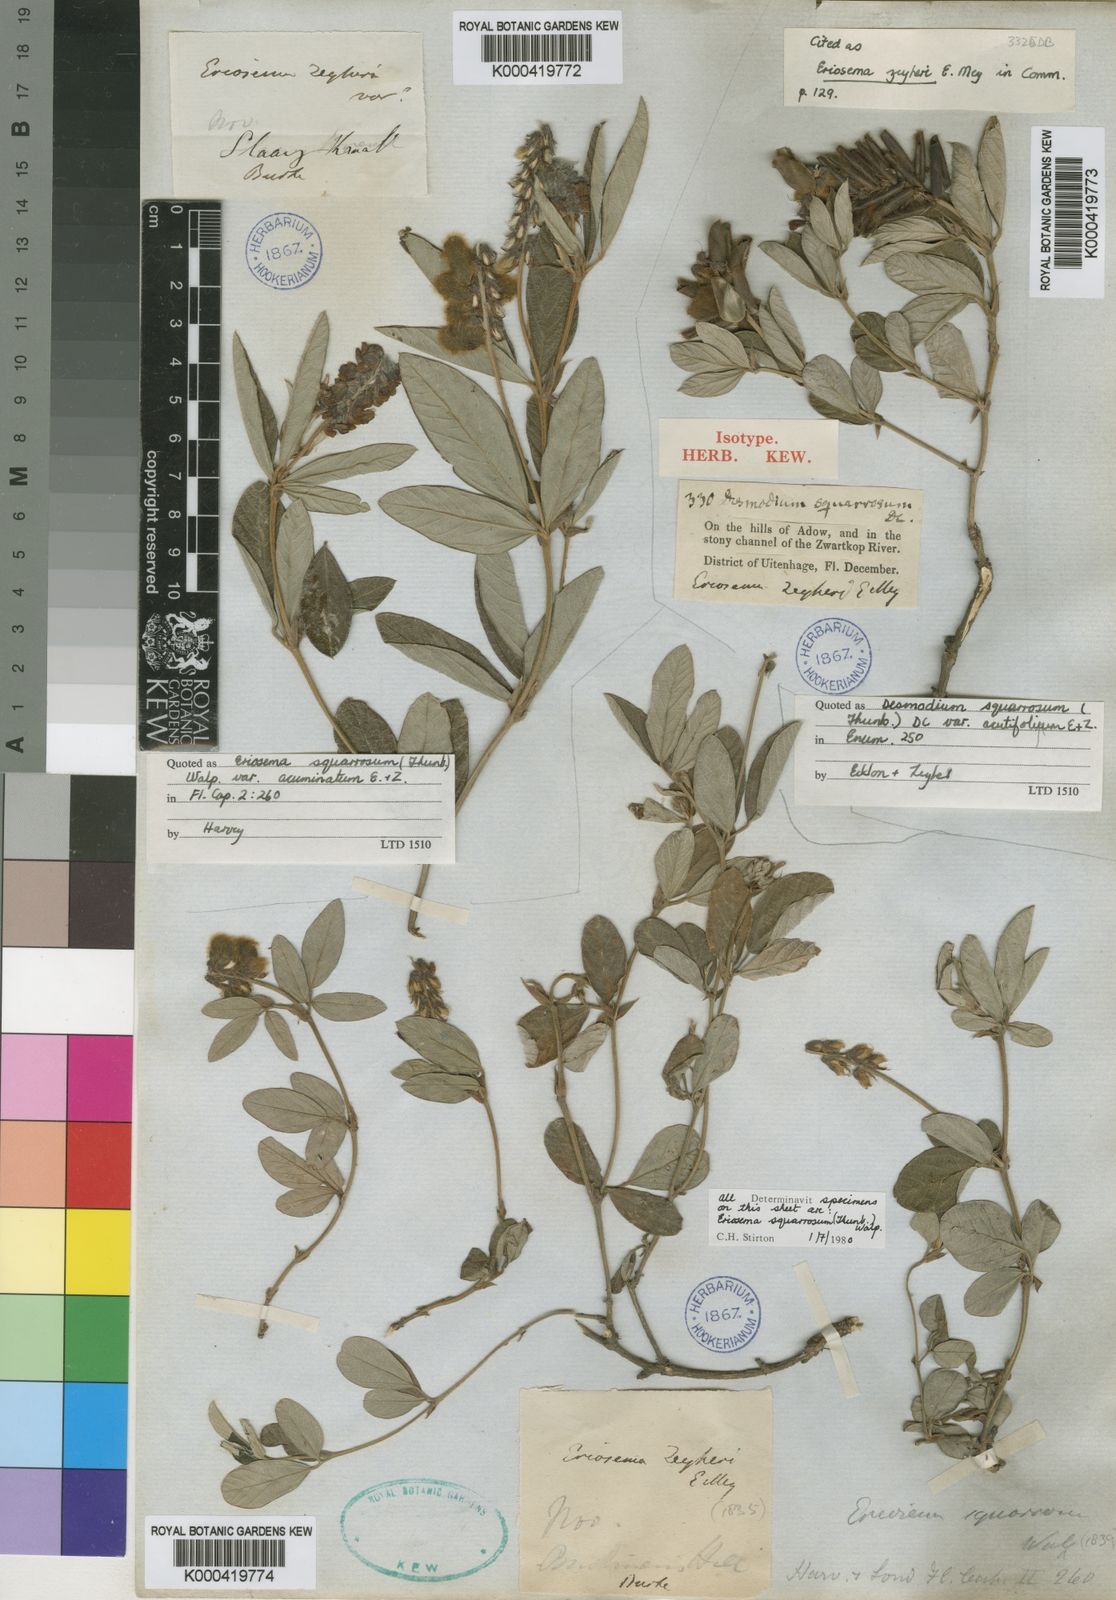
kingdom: Plantae
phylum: Tracheophyta
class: Magnoliopsida
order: Fabales
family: Fabaceae
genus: Eriosema
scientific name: Eriosema squarrosum
